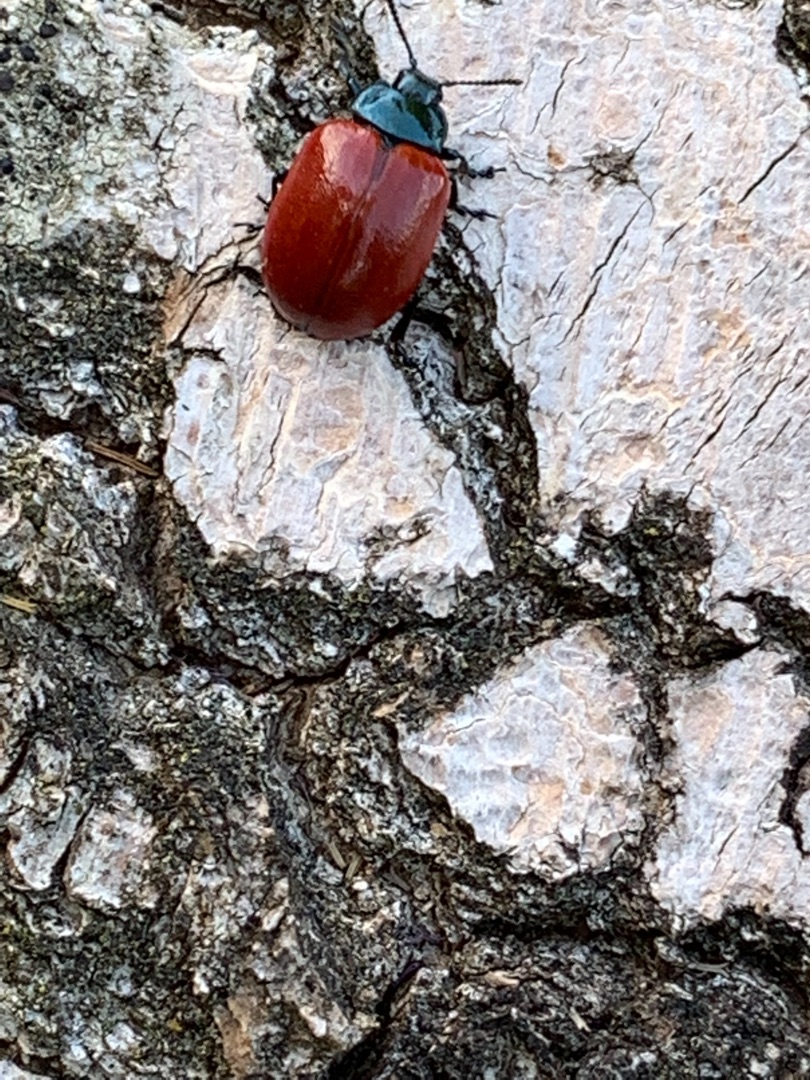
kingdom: Animalia
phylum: Arthropoda
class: Insecta
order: Coleoptera
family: Chrysomelidae
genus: Chrysomela
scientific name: Chrysomela populi
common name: Poppelbladbille
